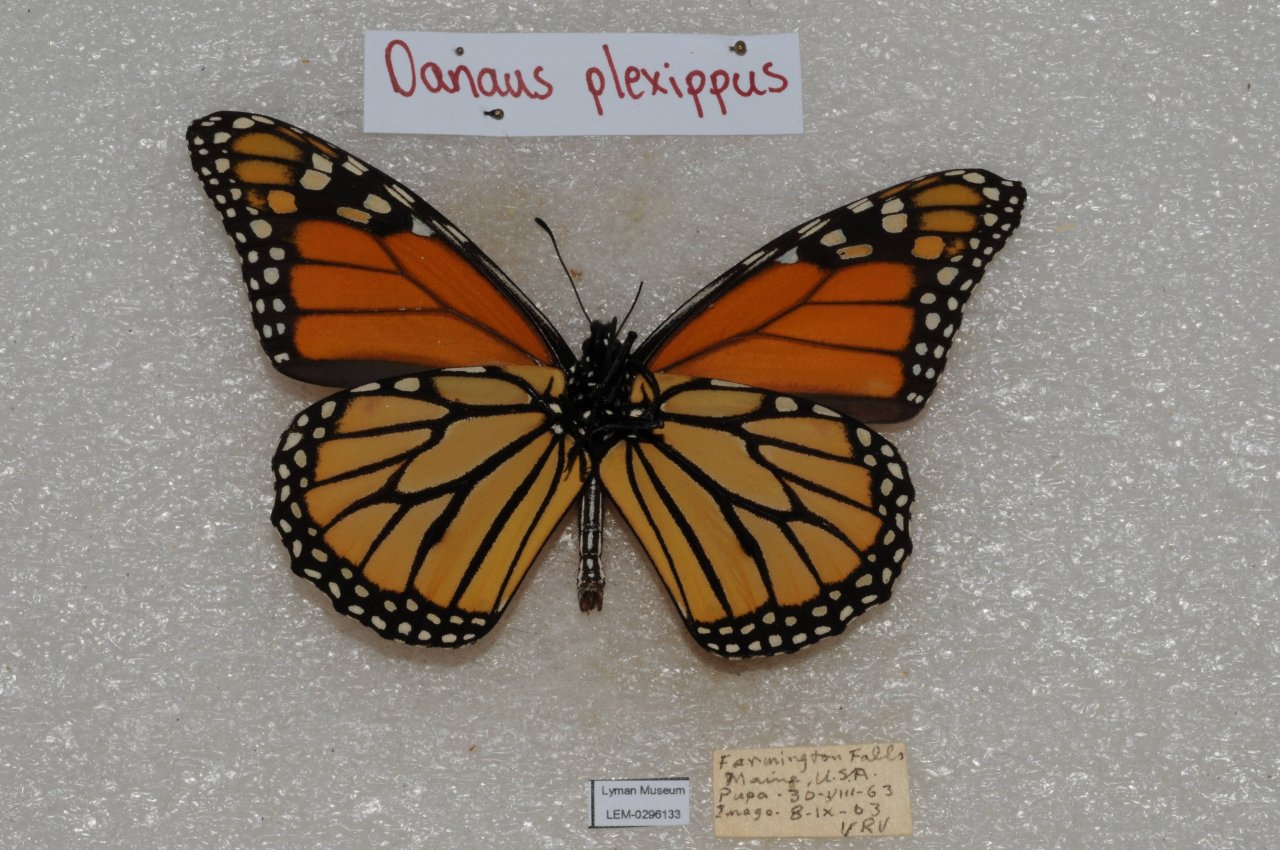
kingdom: Animalia
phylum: Arthropoda
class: Insecta
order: Lepidoptera
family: Nymphalidae
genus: Danaus
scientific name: Danaus plexippus
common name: Monarch
